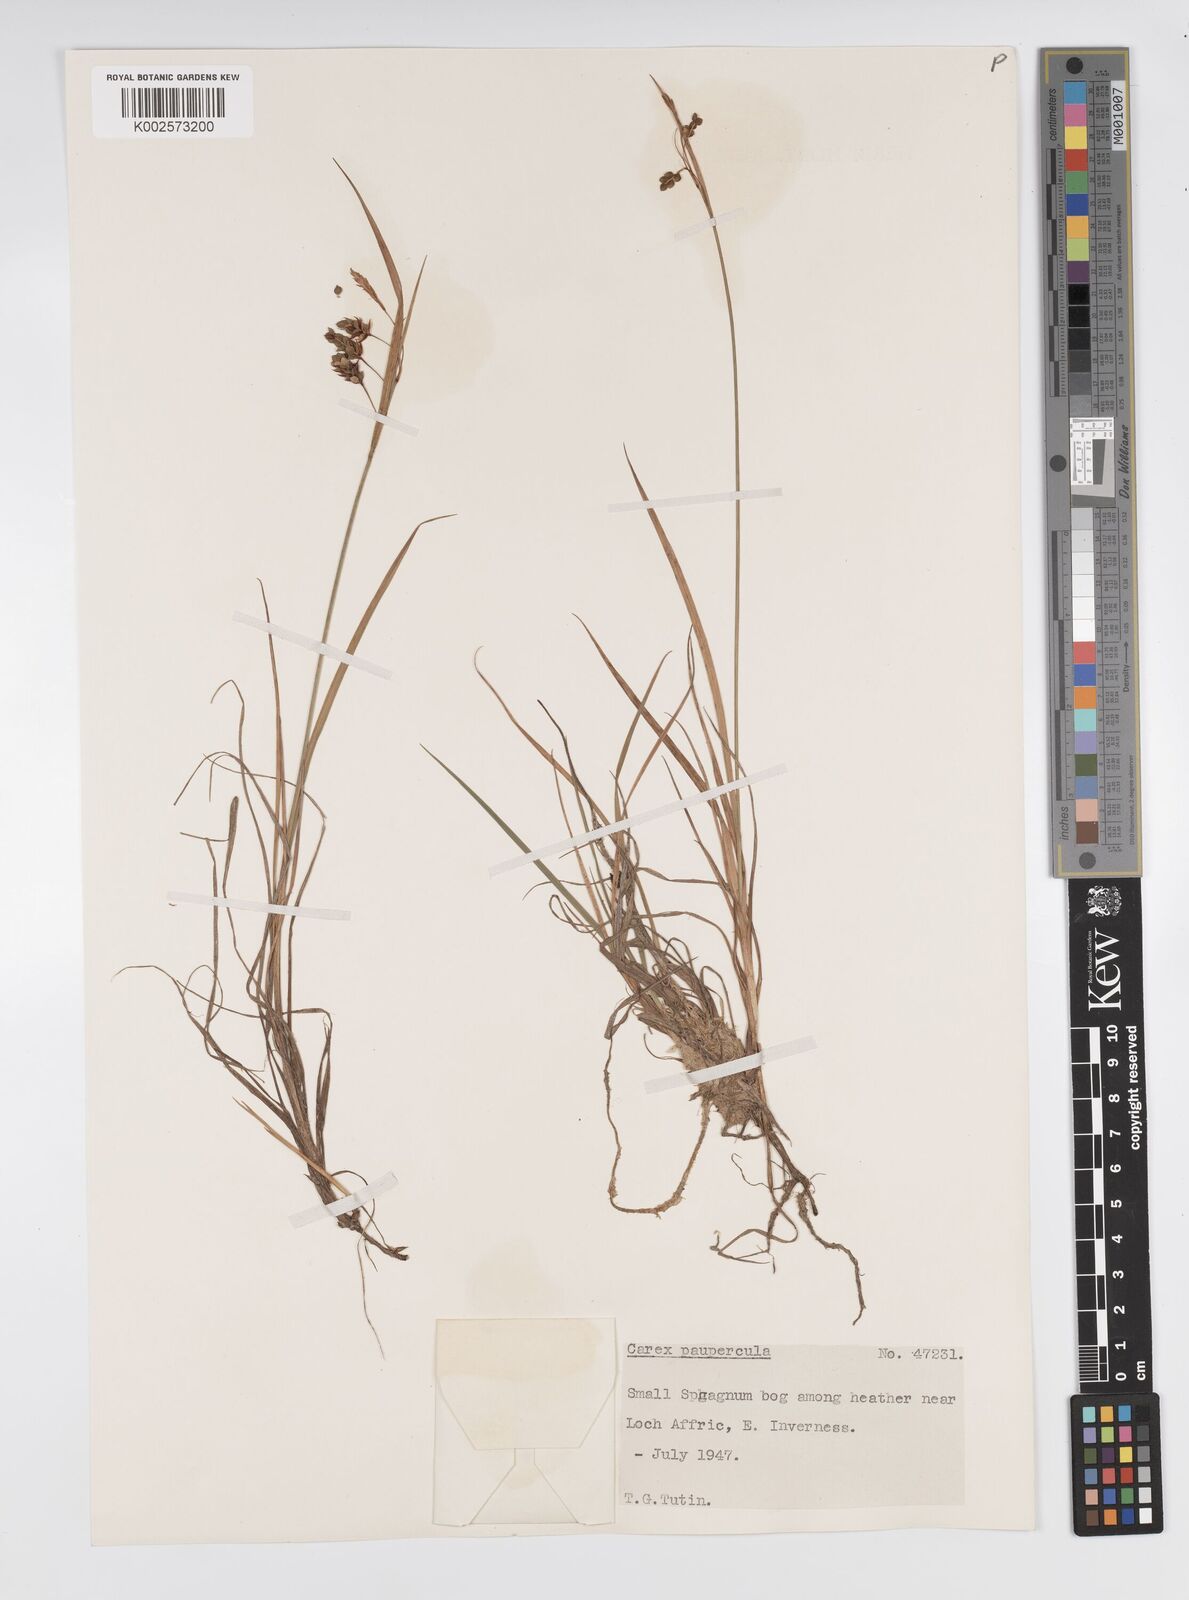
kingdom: Plantae
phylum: Tracheophyta
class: Liliopsida
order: Poales
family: Cyperaceae
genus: Carex
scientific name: Carex magellanica
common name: Bog sedge
